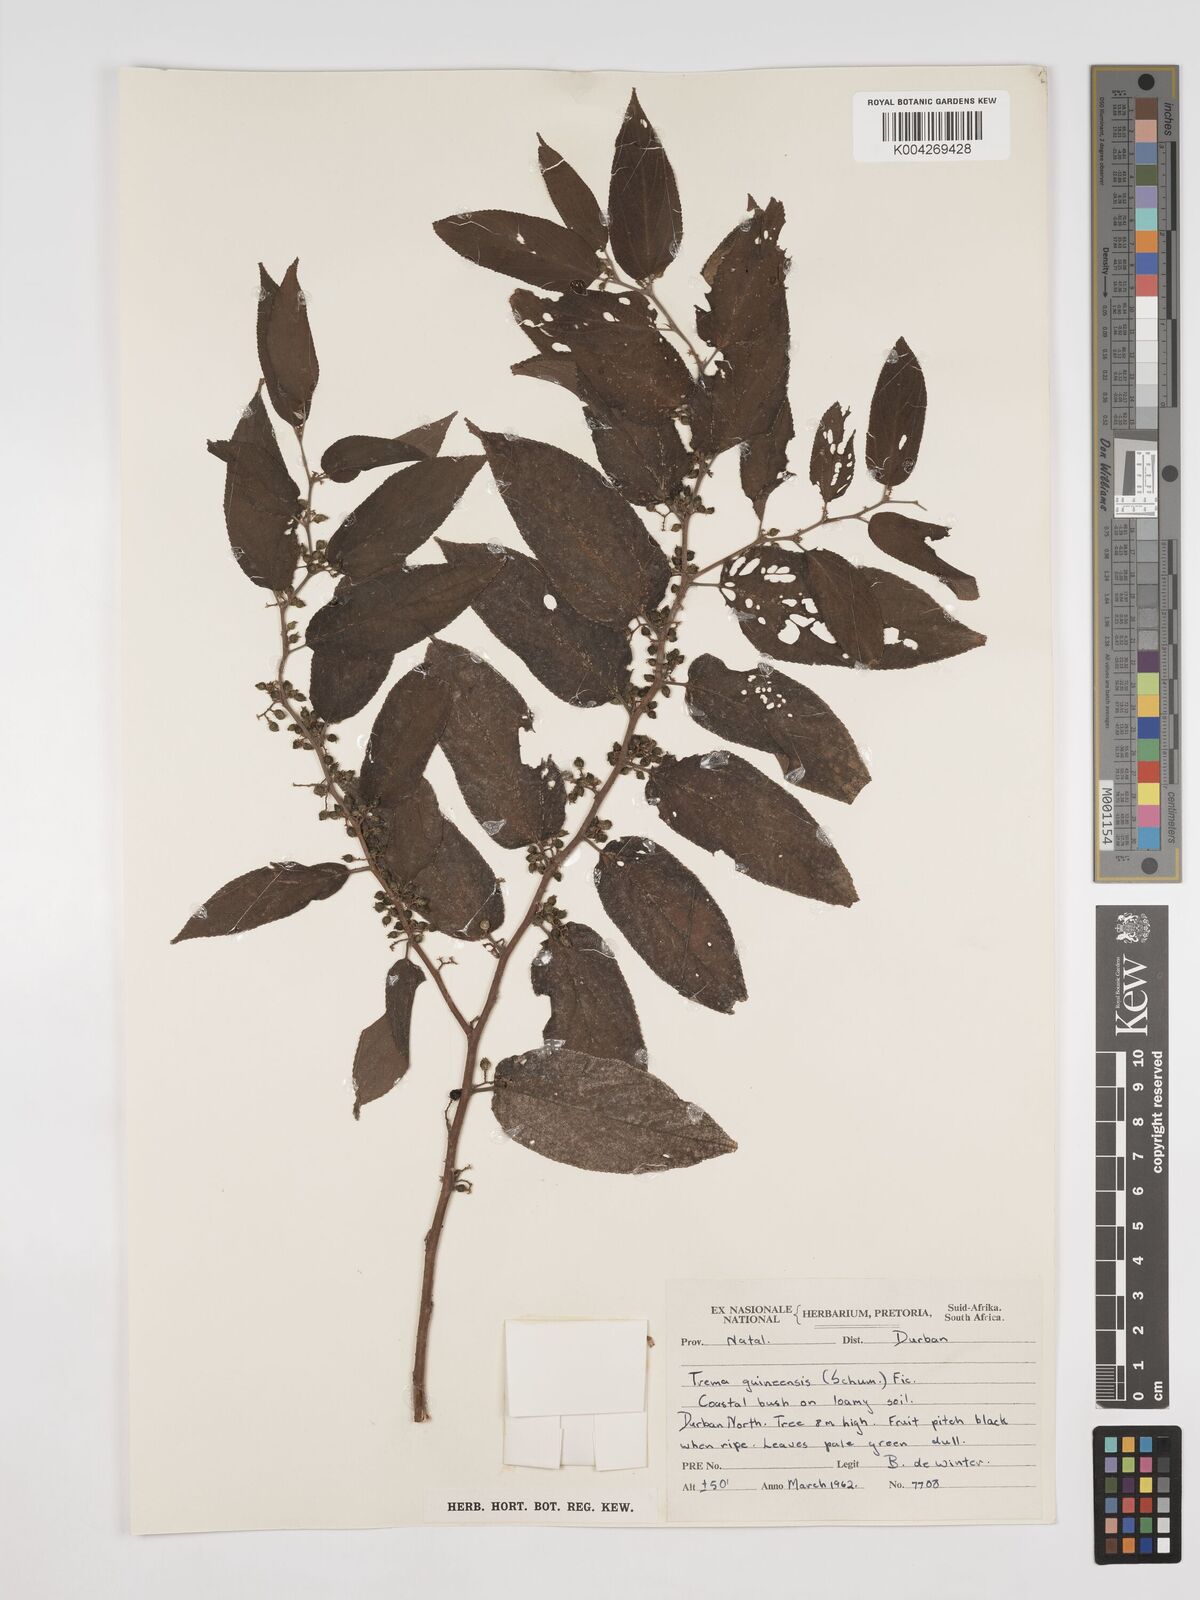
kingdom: Plantae
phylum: Tracheophyta
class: Magnoliopsida
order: Rosales
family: Cannabaceae
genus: Trema
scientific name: Trema orientale
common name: Indian charcoal tree
